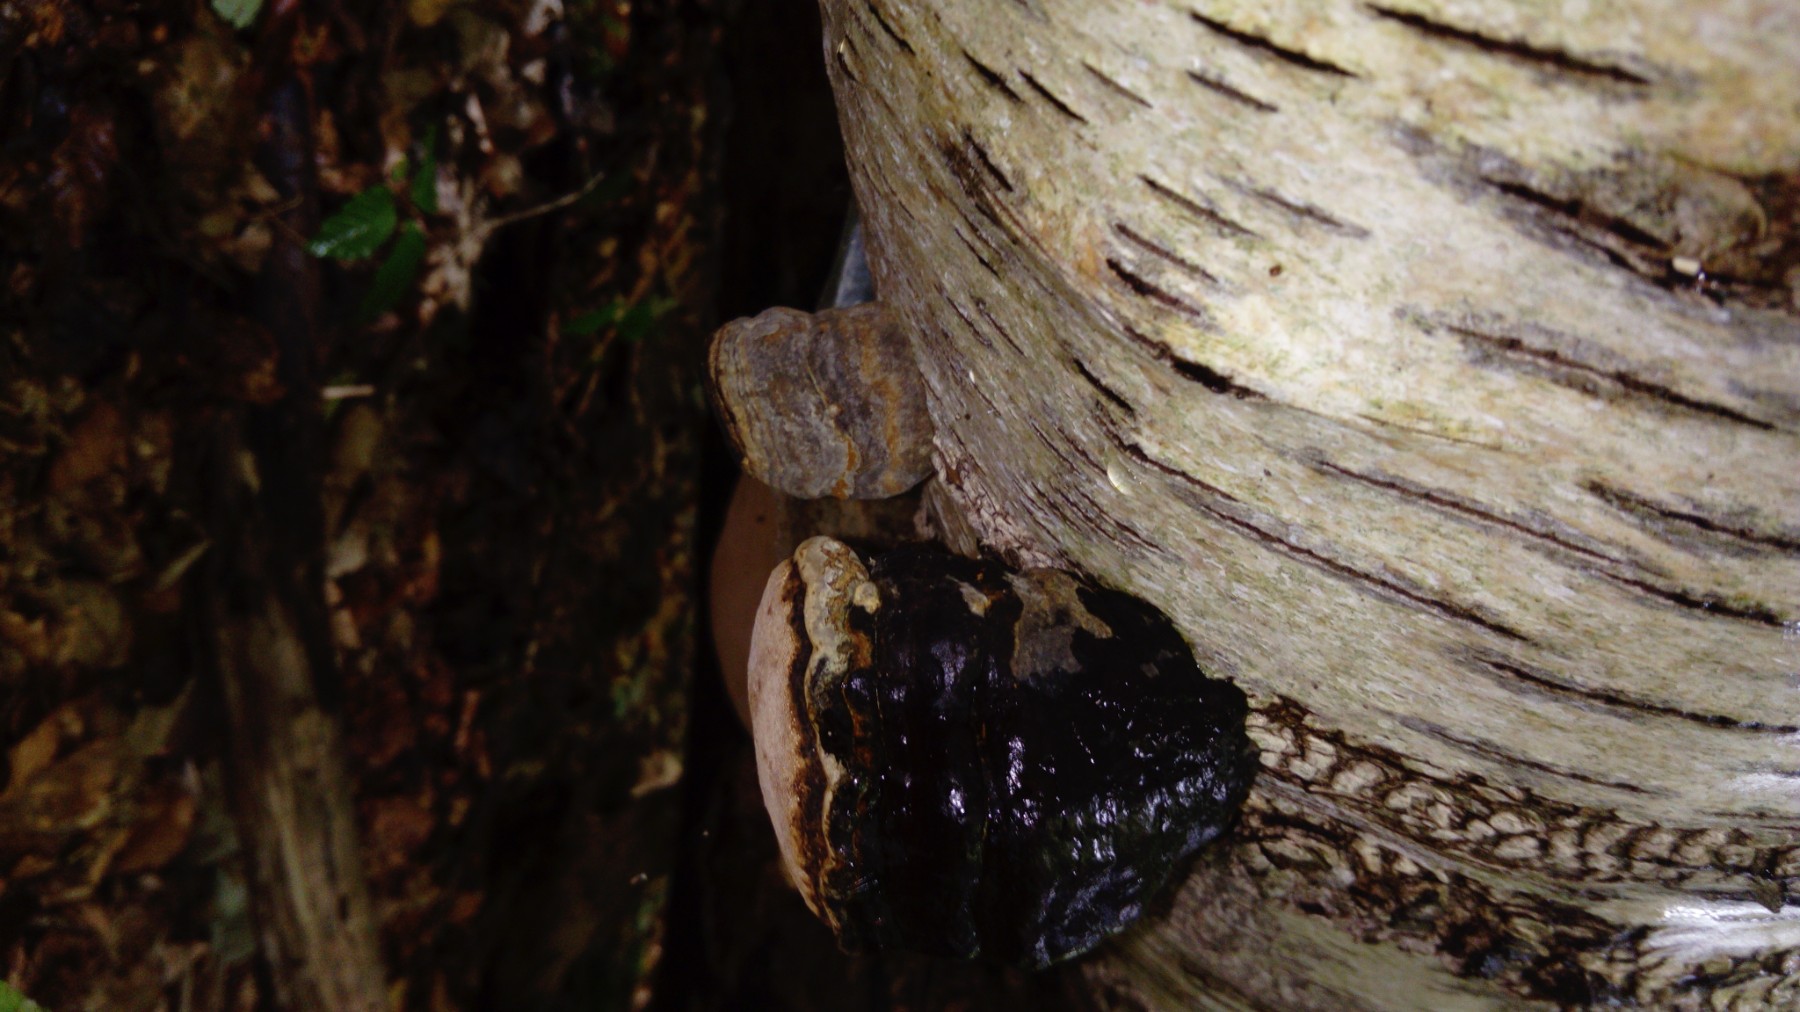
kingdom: Fungi
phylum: Basidiomycota
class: Agaricomycetes
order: Polyporales
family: Polyporaceae
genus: Fomes
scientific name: Fomes fomentarius
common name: tøndersvamp
